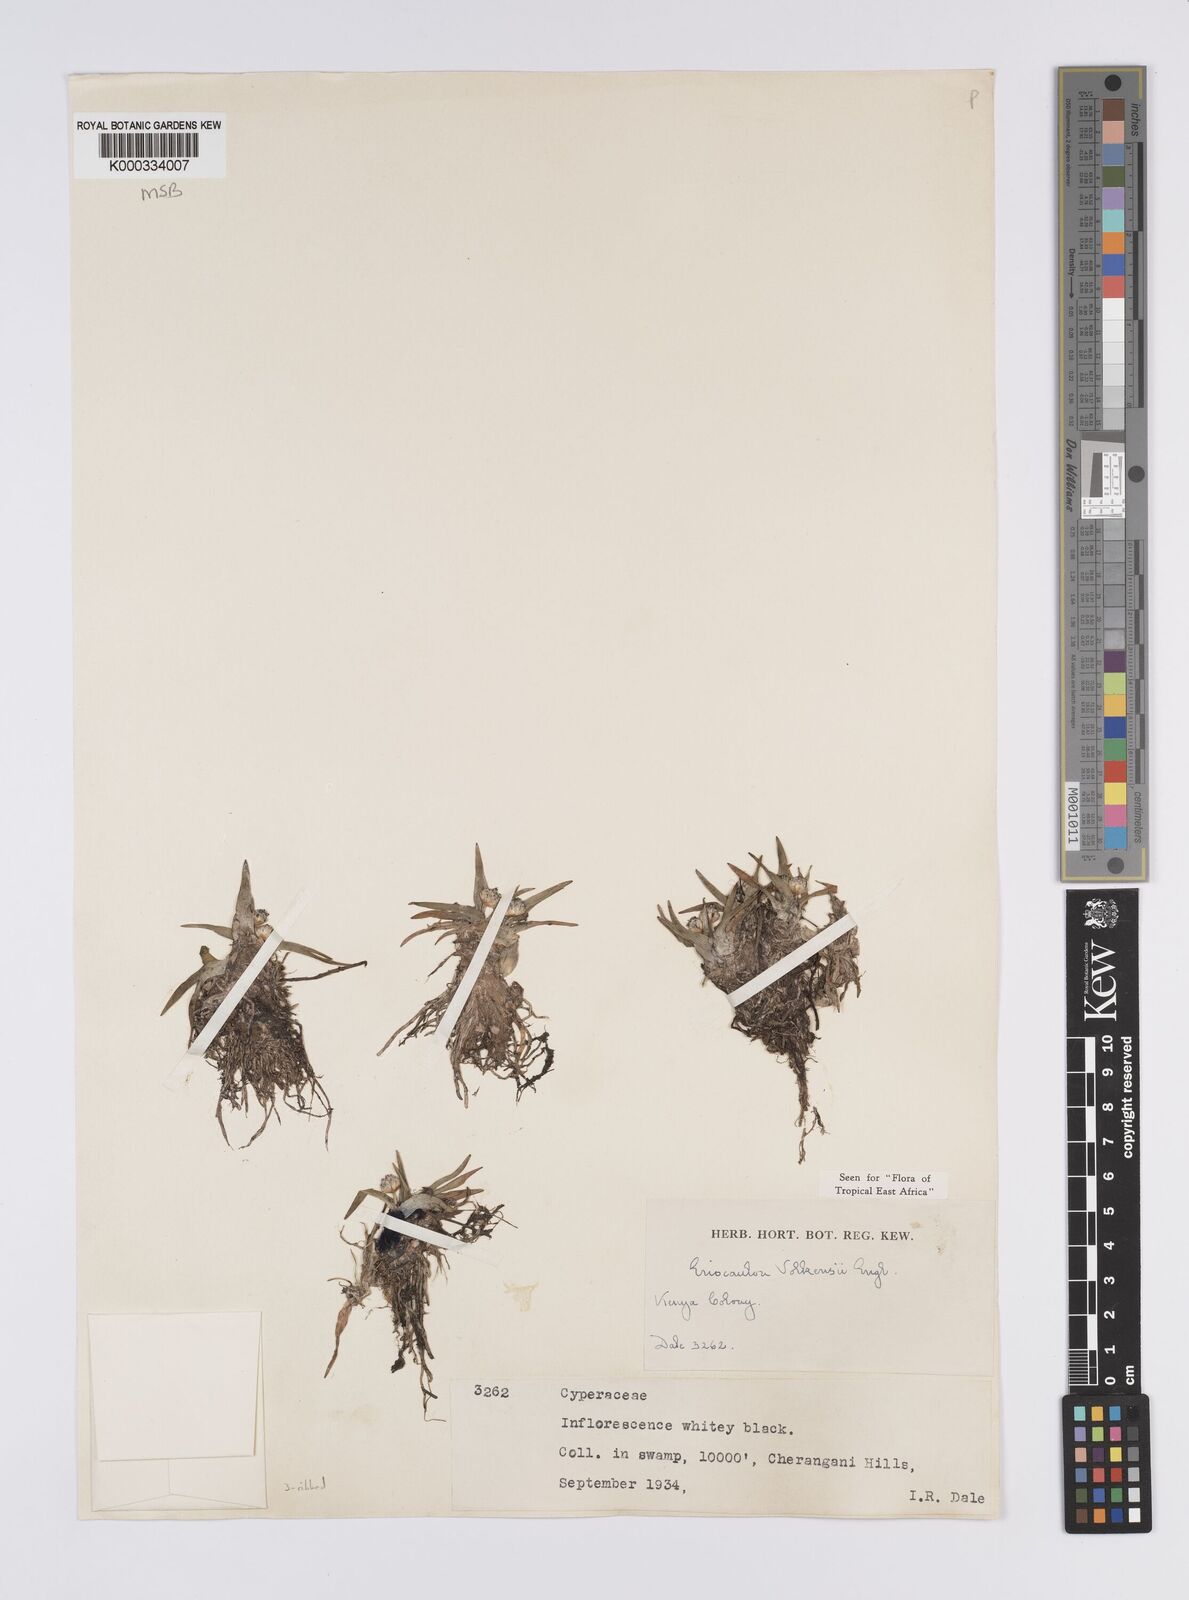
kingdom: Plantae
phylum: Tracheophyta
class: Liliopsida
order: Poales
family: Eriocaulaceae
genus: Eriocaulon
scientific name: Eriocaulon volkensii
